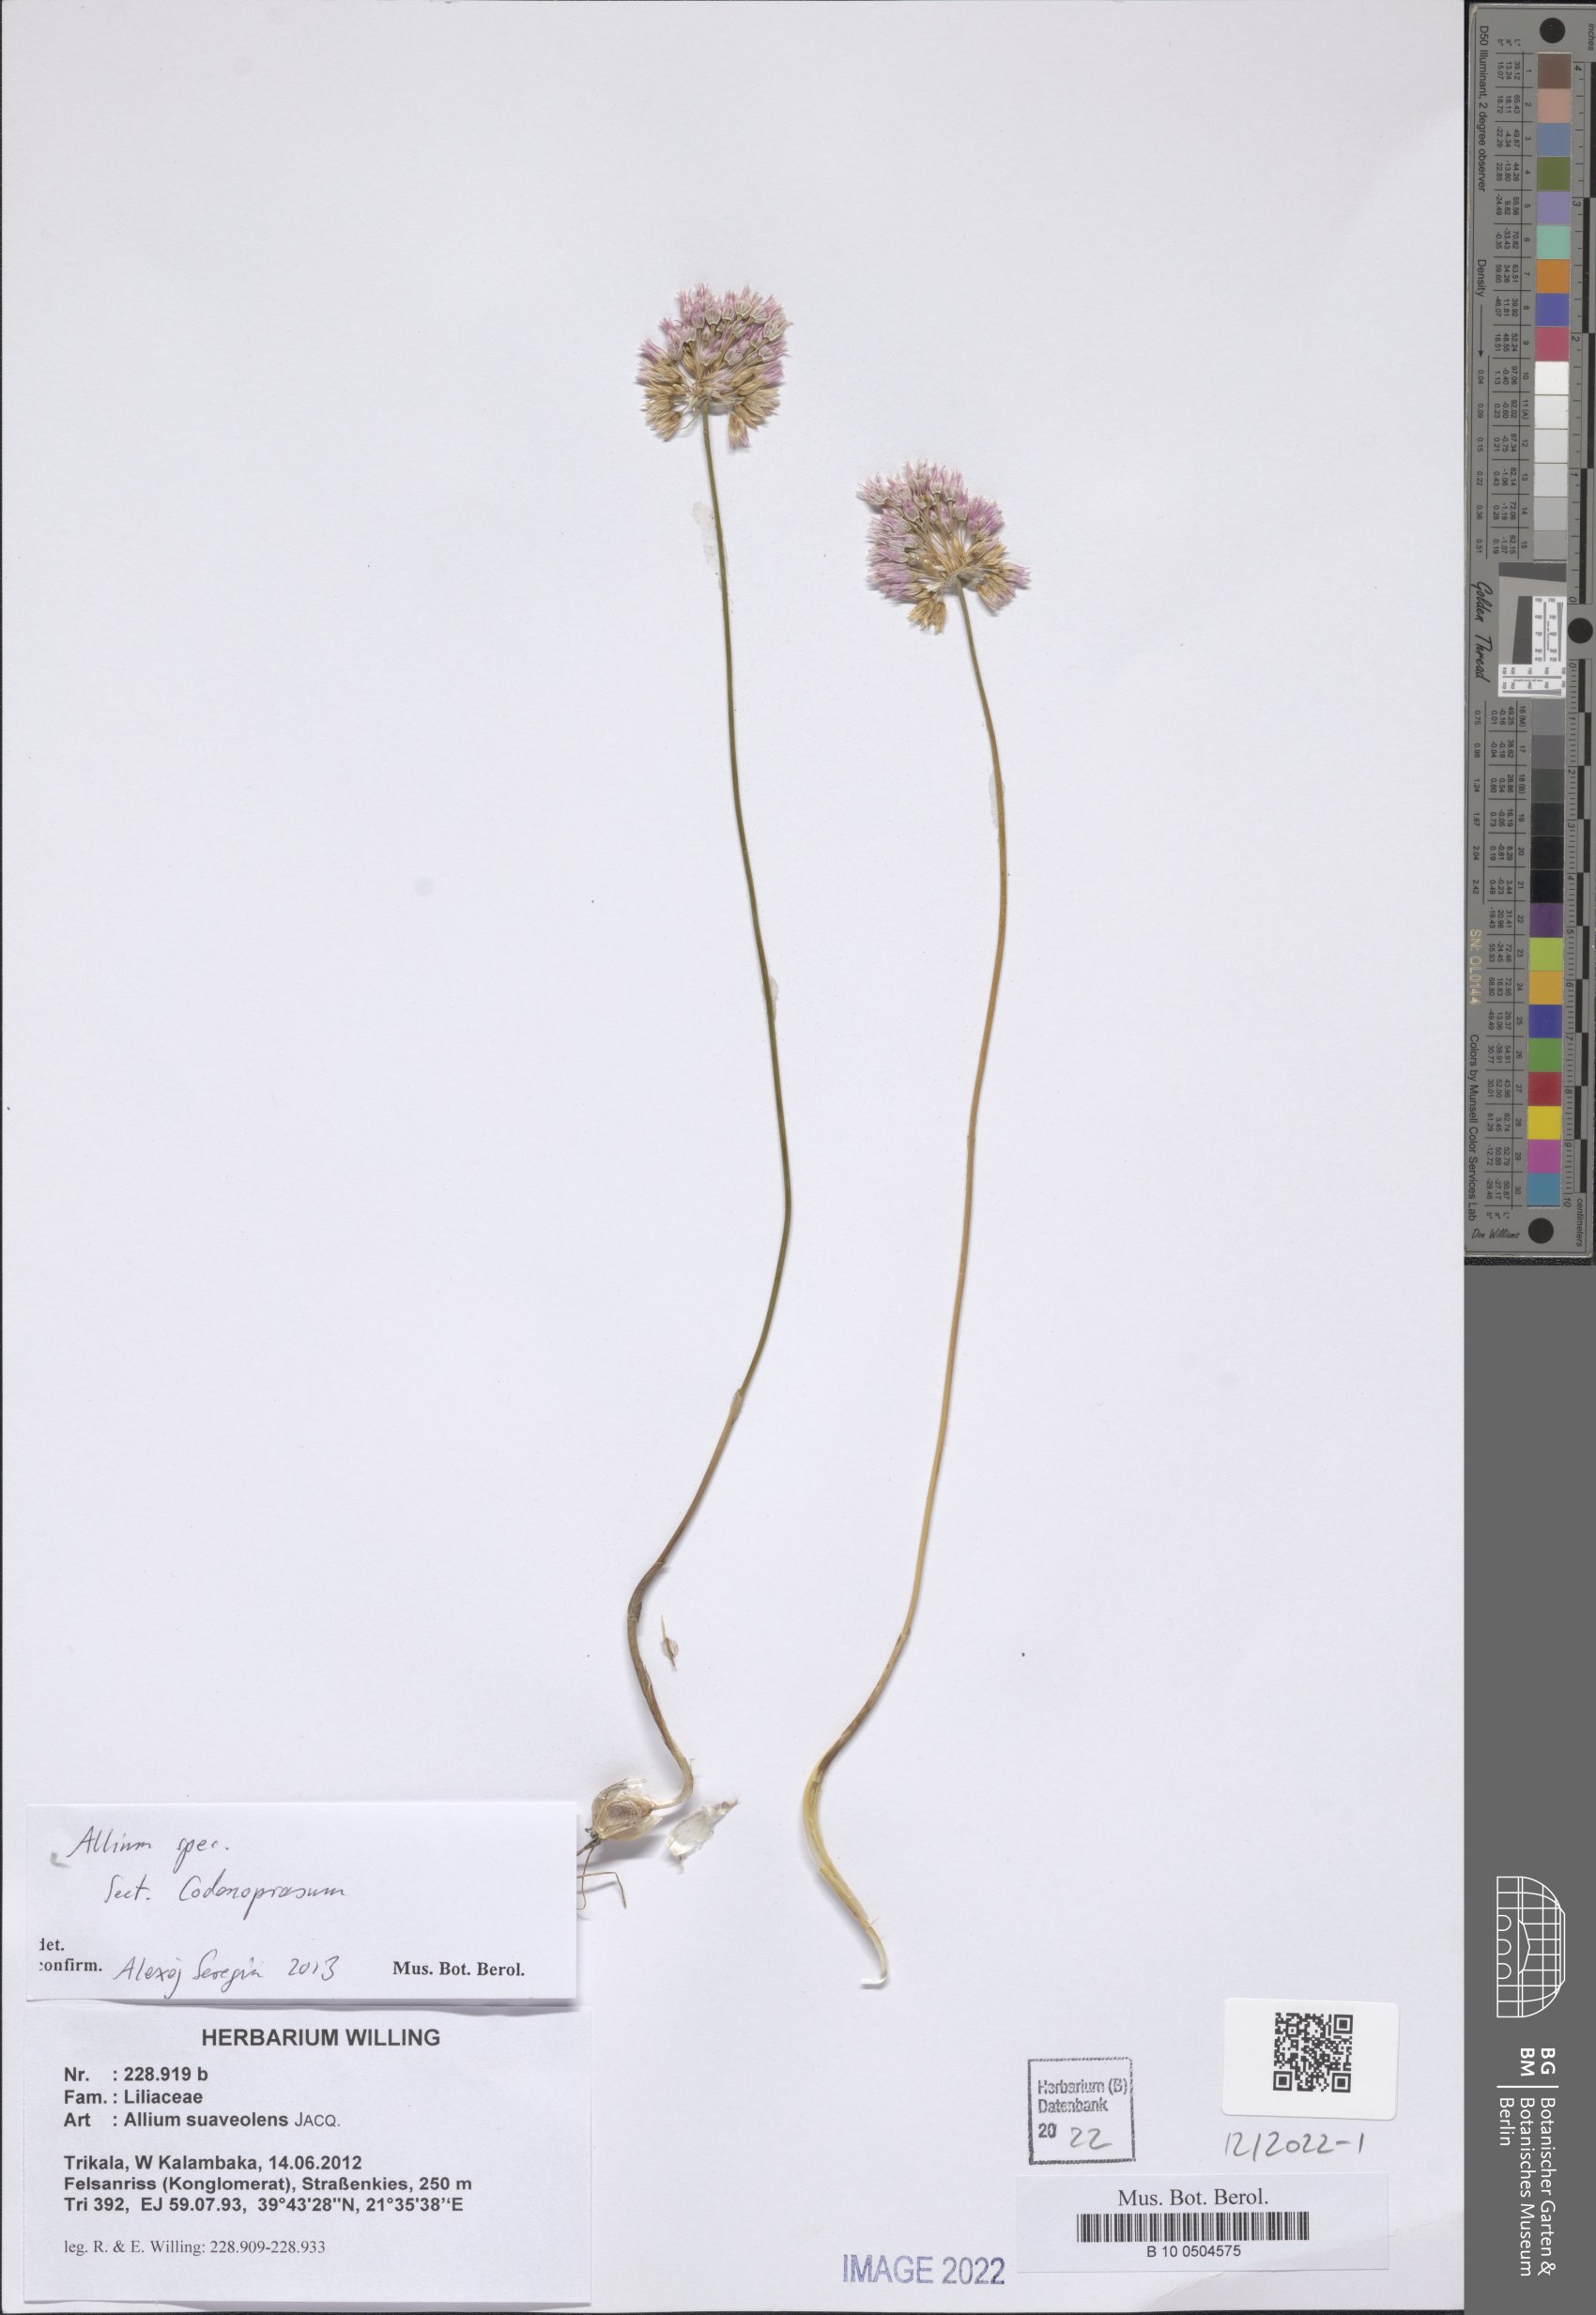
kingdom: Plantae
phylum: Tracheophyta
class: Liliopsida
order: Asparagales
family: Amaryllidaceae
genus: Allium
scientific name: Allium
